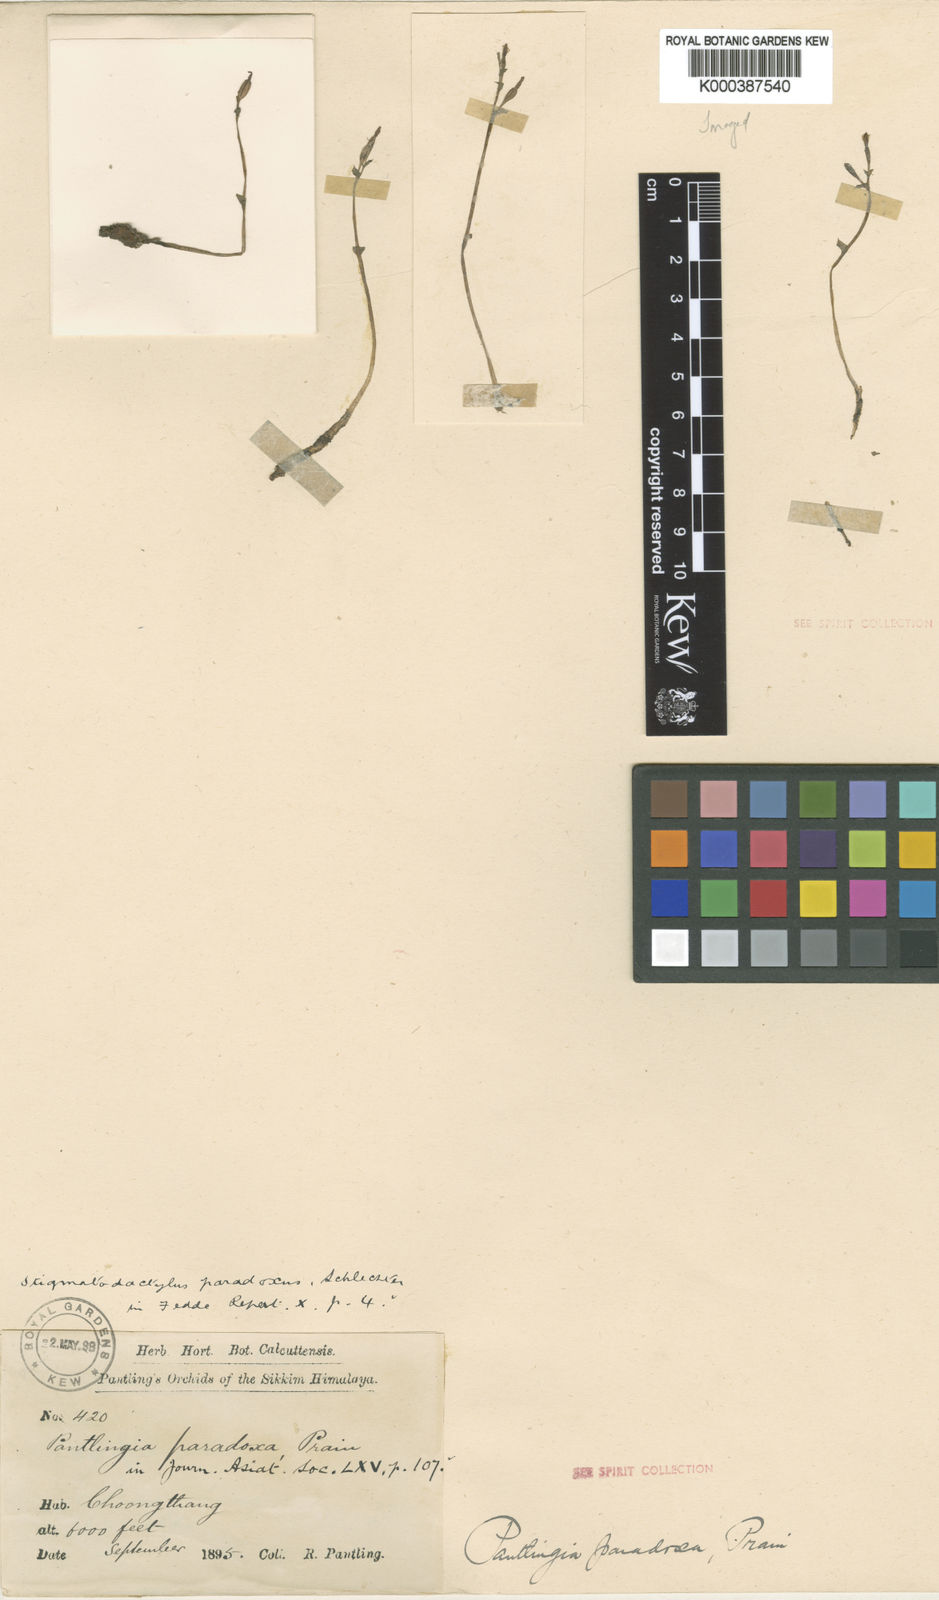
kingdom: Plantae
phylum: Tracheophyta
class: Liliopsida
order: Asparagales
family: Orchidaceae
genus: Stigmatodactylus
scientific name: Stigmatodactylus paradoxus
